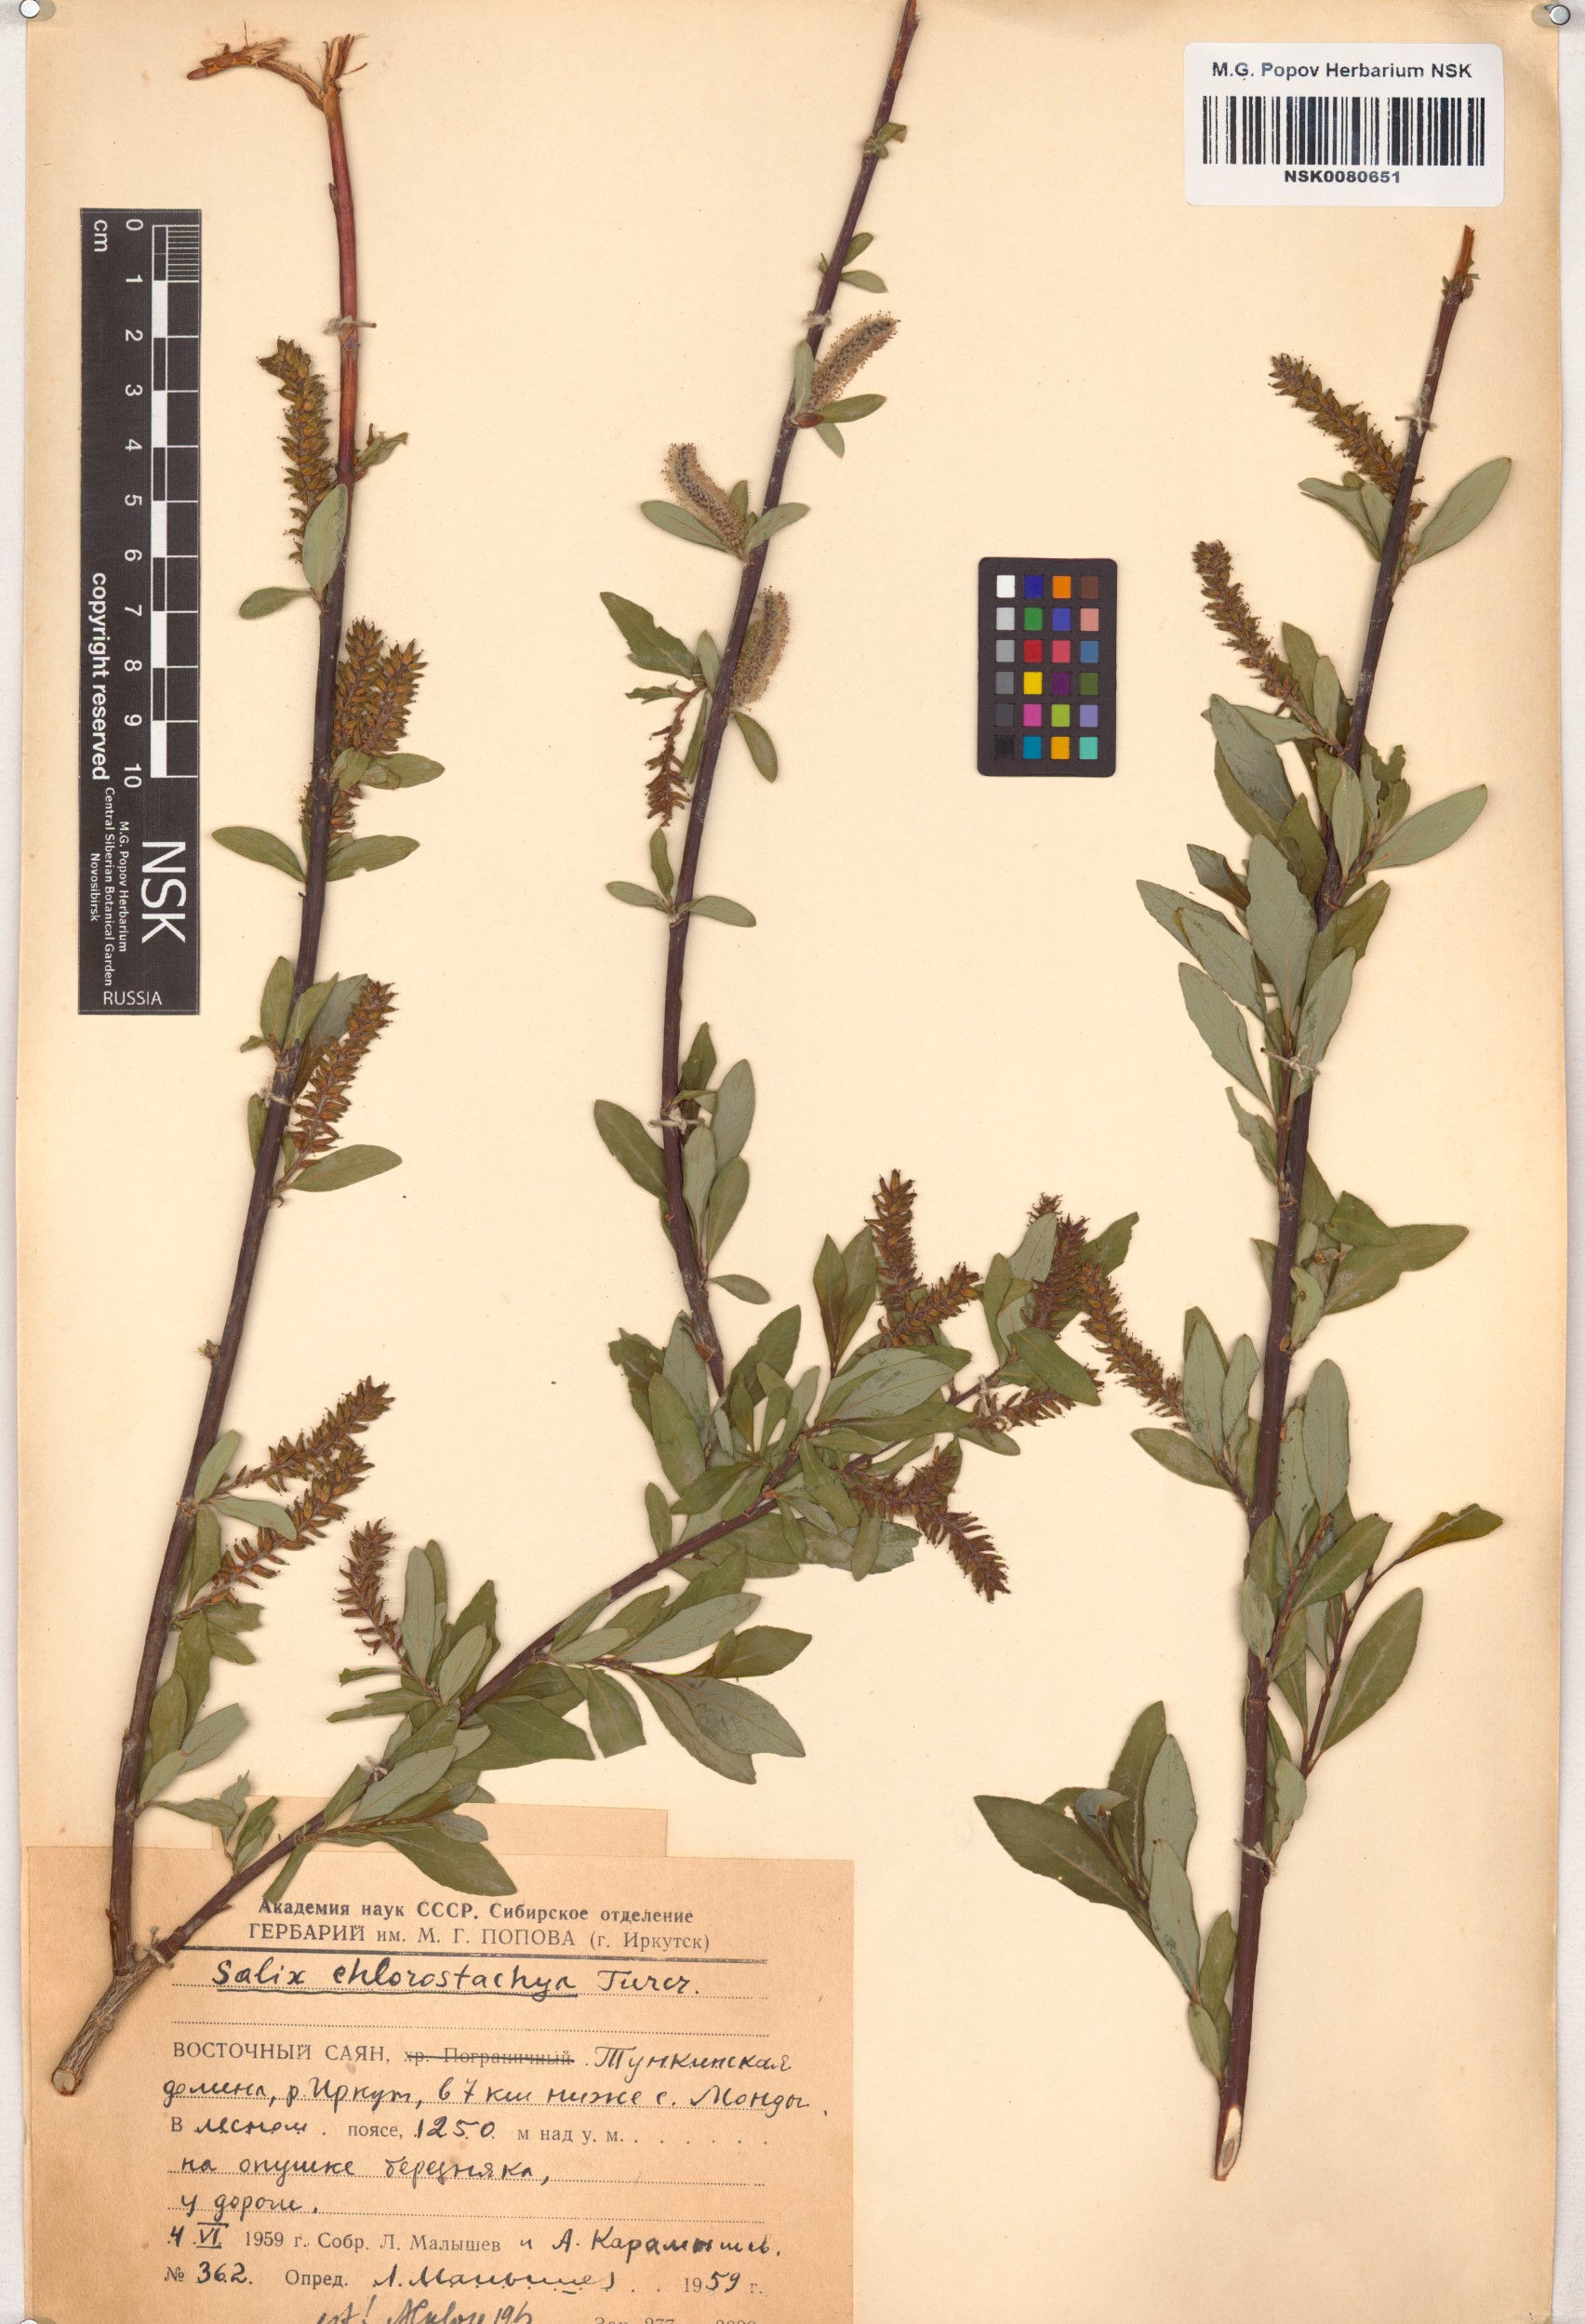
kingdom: Plantae
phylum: Tracheophyta
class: Magnoliopsida
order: Malpighiales
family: Salicaceae
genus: Salix
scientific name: Salix rhamnifolia
